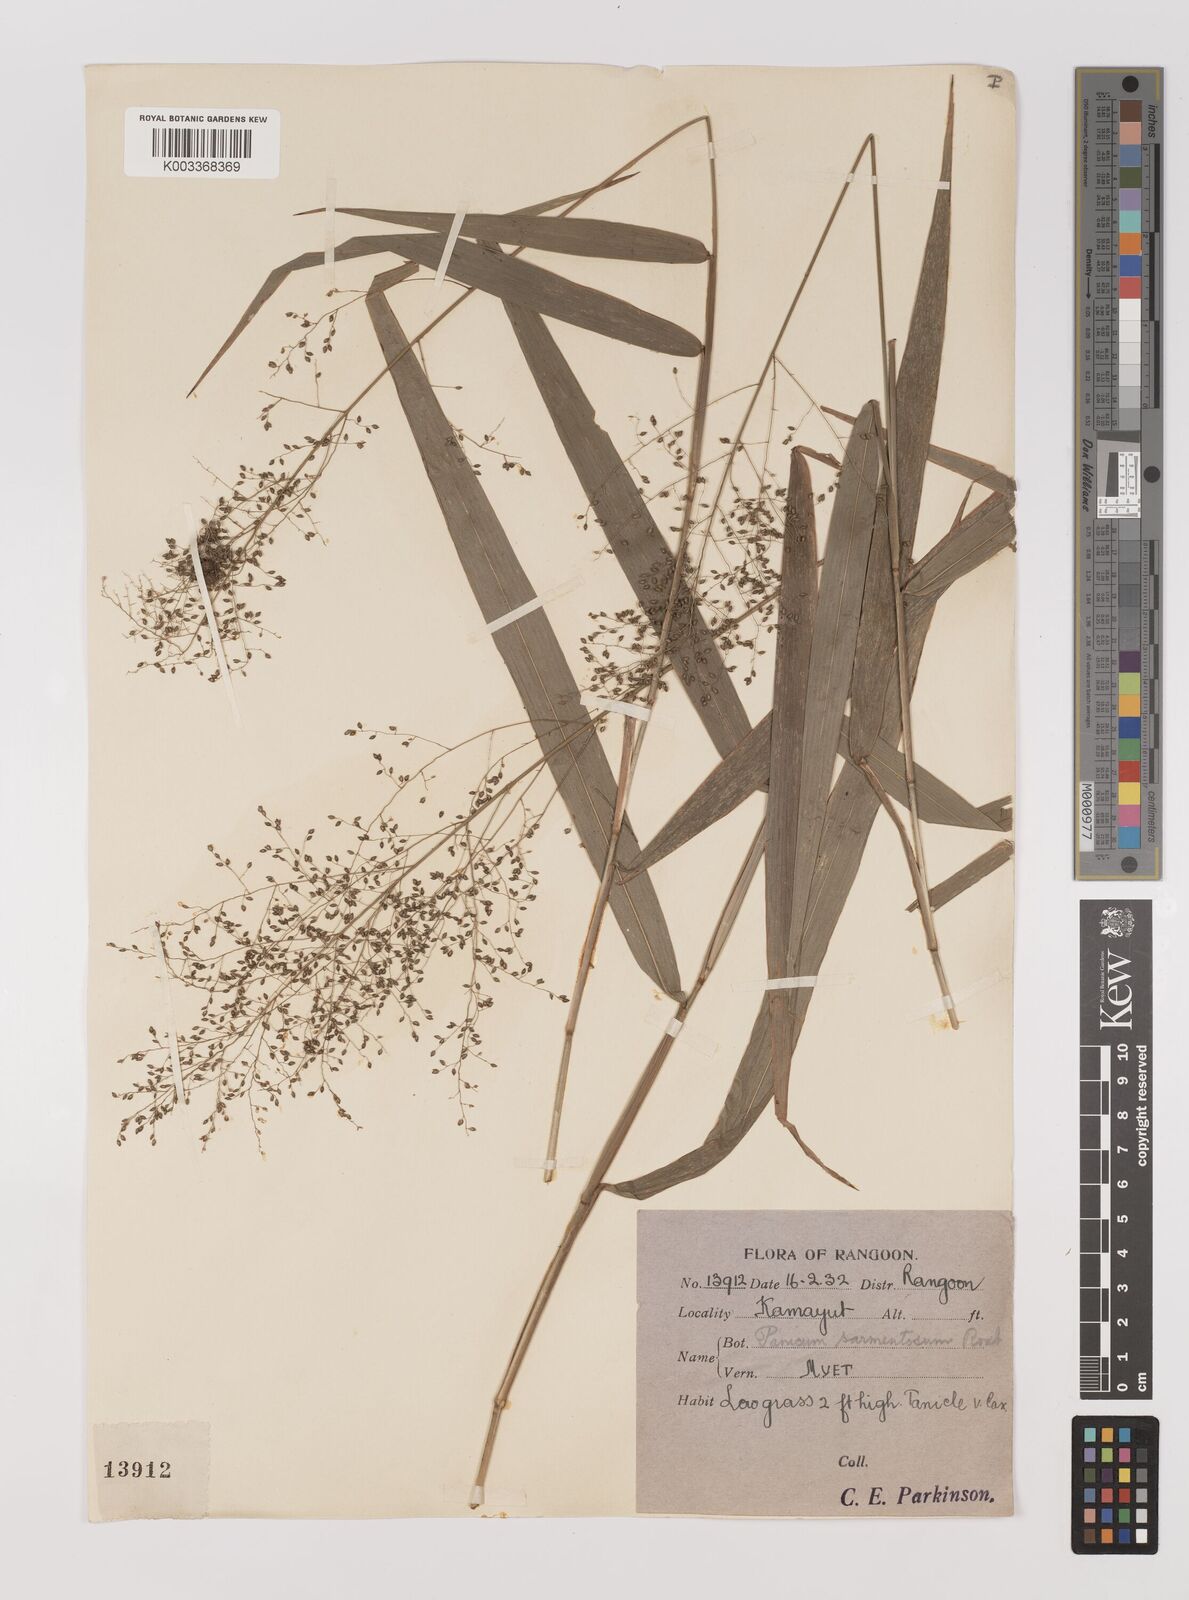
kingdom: Plantae
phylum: Tracheophyta
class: Liliopsida
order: Poales
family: Poaceae
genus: Panicum
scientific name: Panicum sarmentosum
